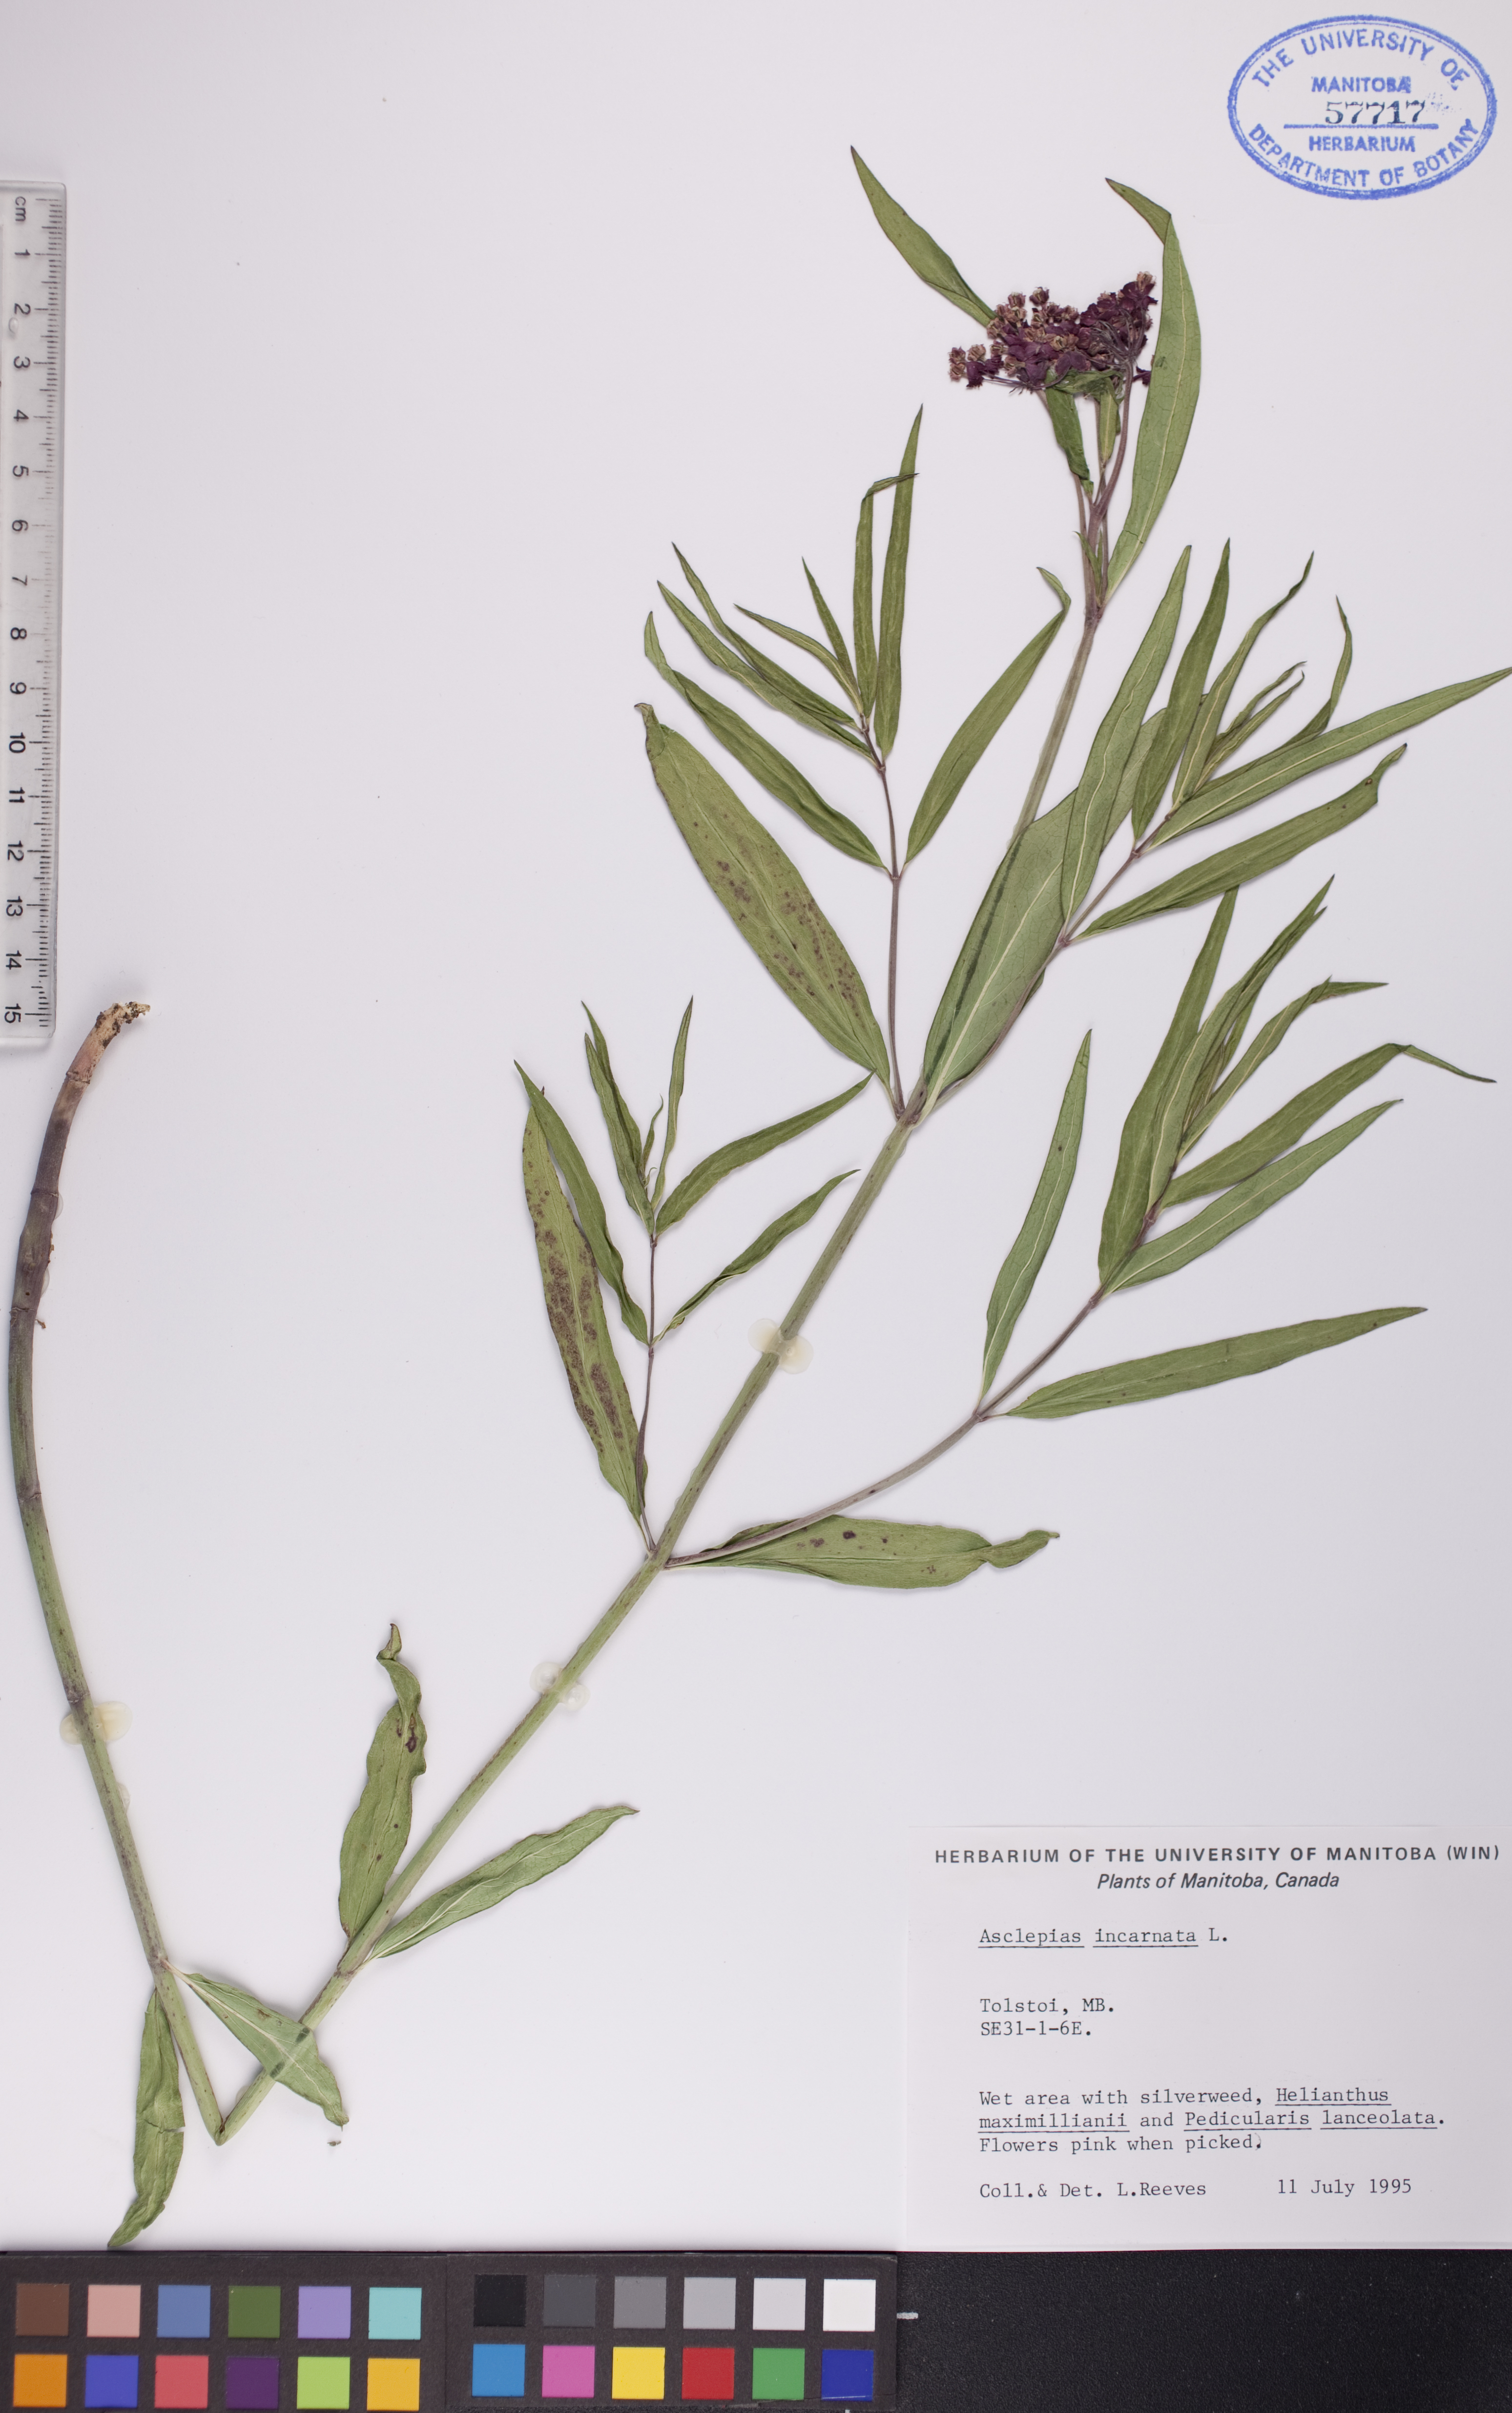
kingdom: Plantae
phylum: Tracheophyta
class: Magnoliopsida
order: Gentianales
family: Apocynaceae
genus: Asclepias
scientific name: Asclepias incarnata
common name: Swamp milkweed
